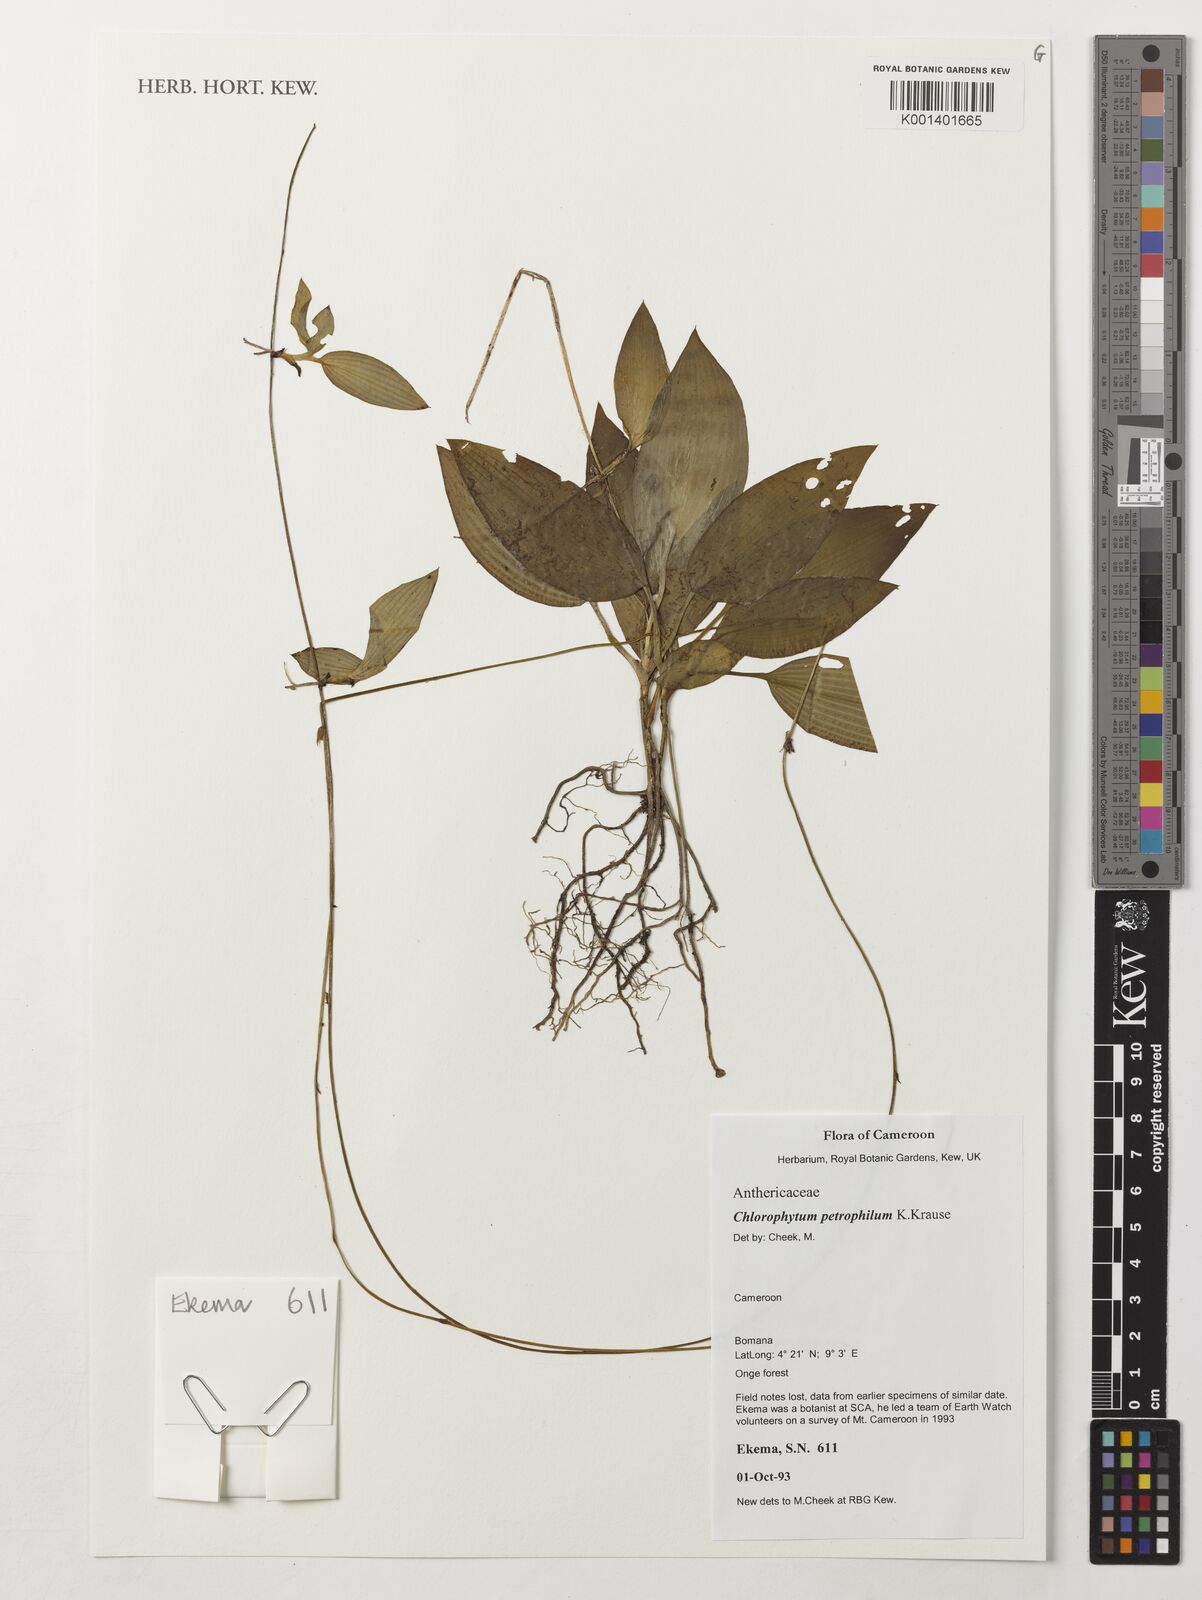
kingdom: Plantae
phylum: Tracheophyta
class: Liliopsida
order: Asparagales
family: Asparagaceae
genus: Chlorophytum
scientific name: Chlorophytum petrophilum
